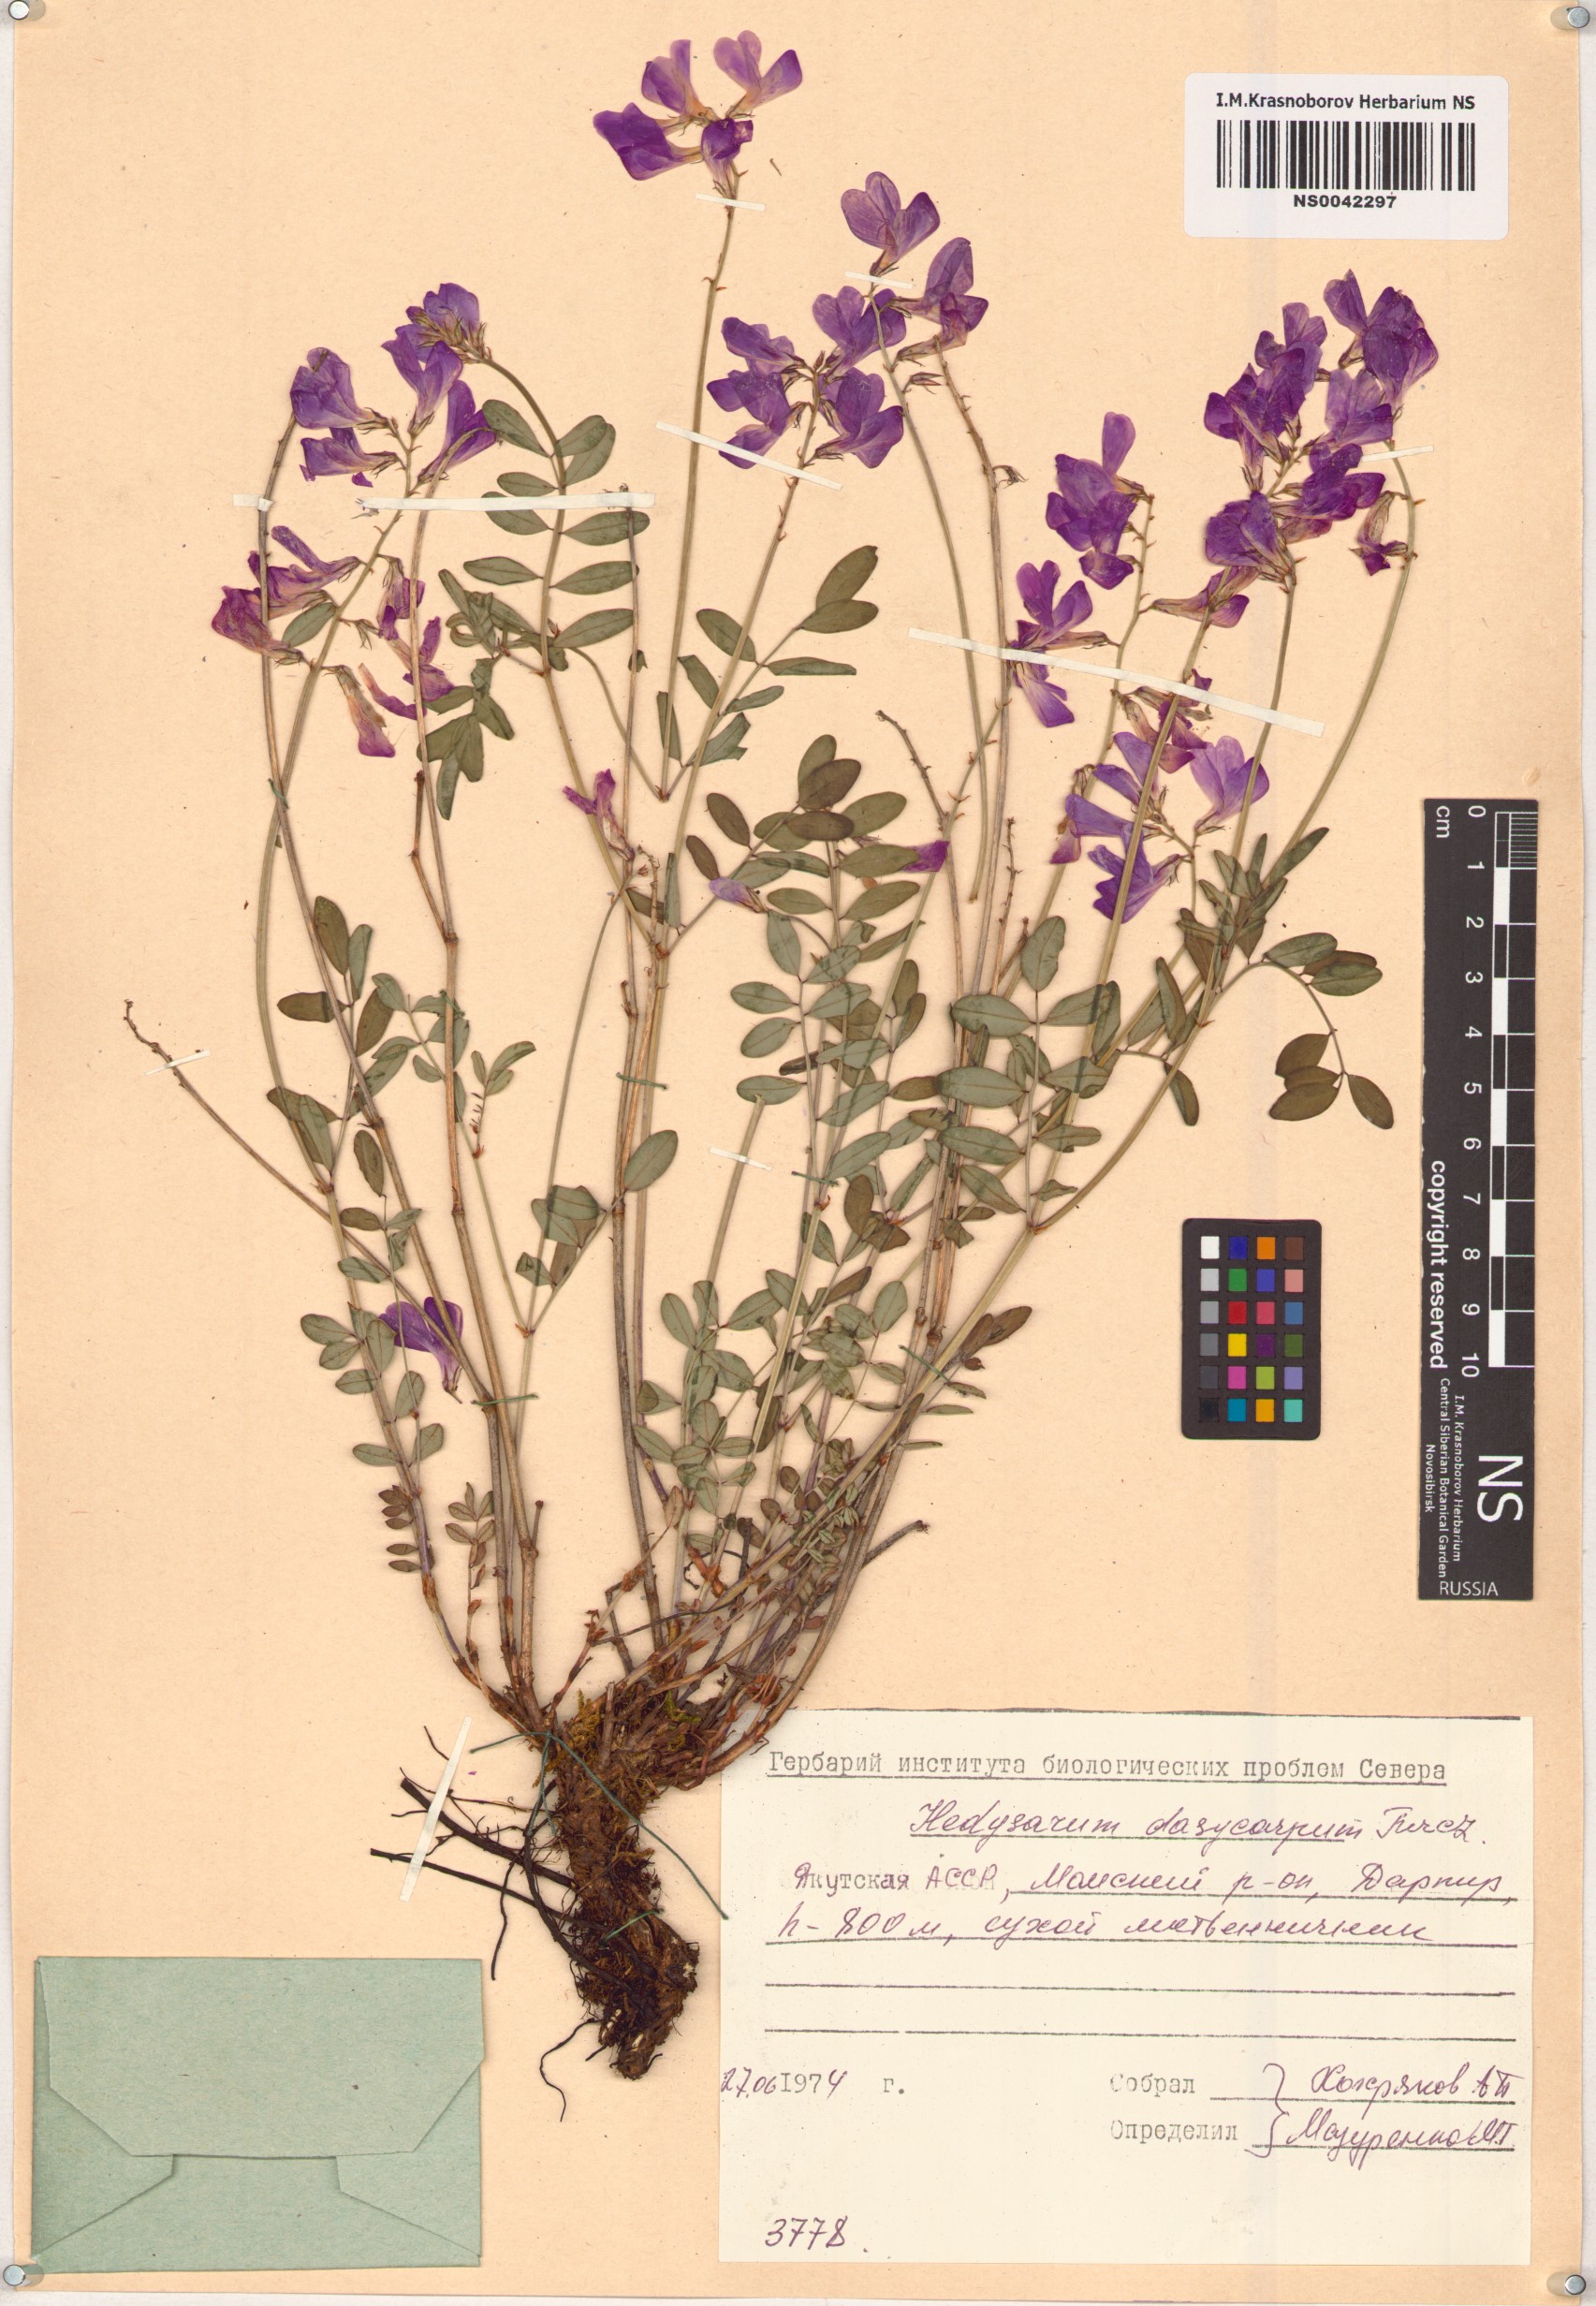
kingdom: Plantae
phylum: Tracheophyta
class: Magnoliopsida
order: Fabales
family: Fabaceae
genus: Hedysarum
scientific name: Hedysarum dasycarpum
